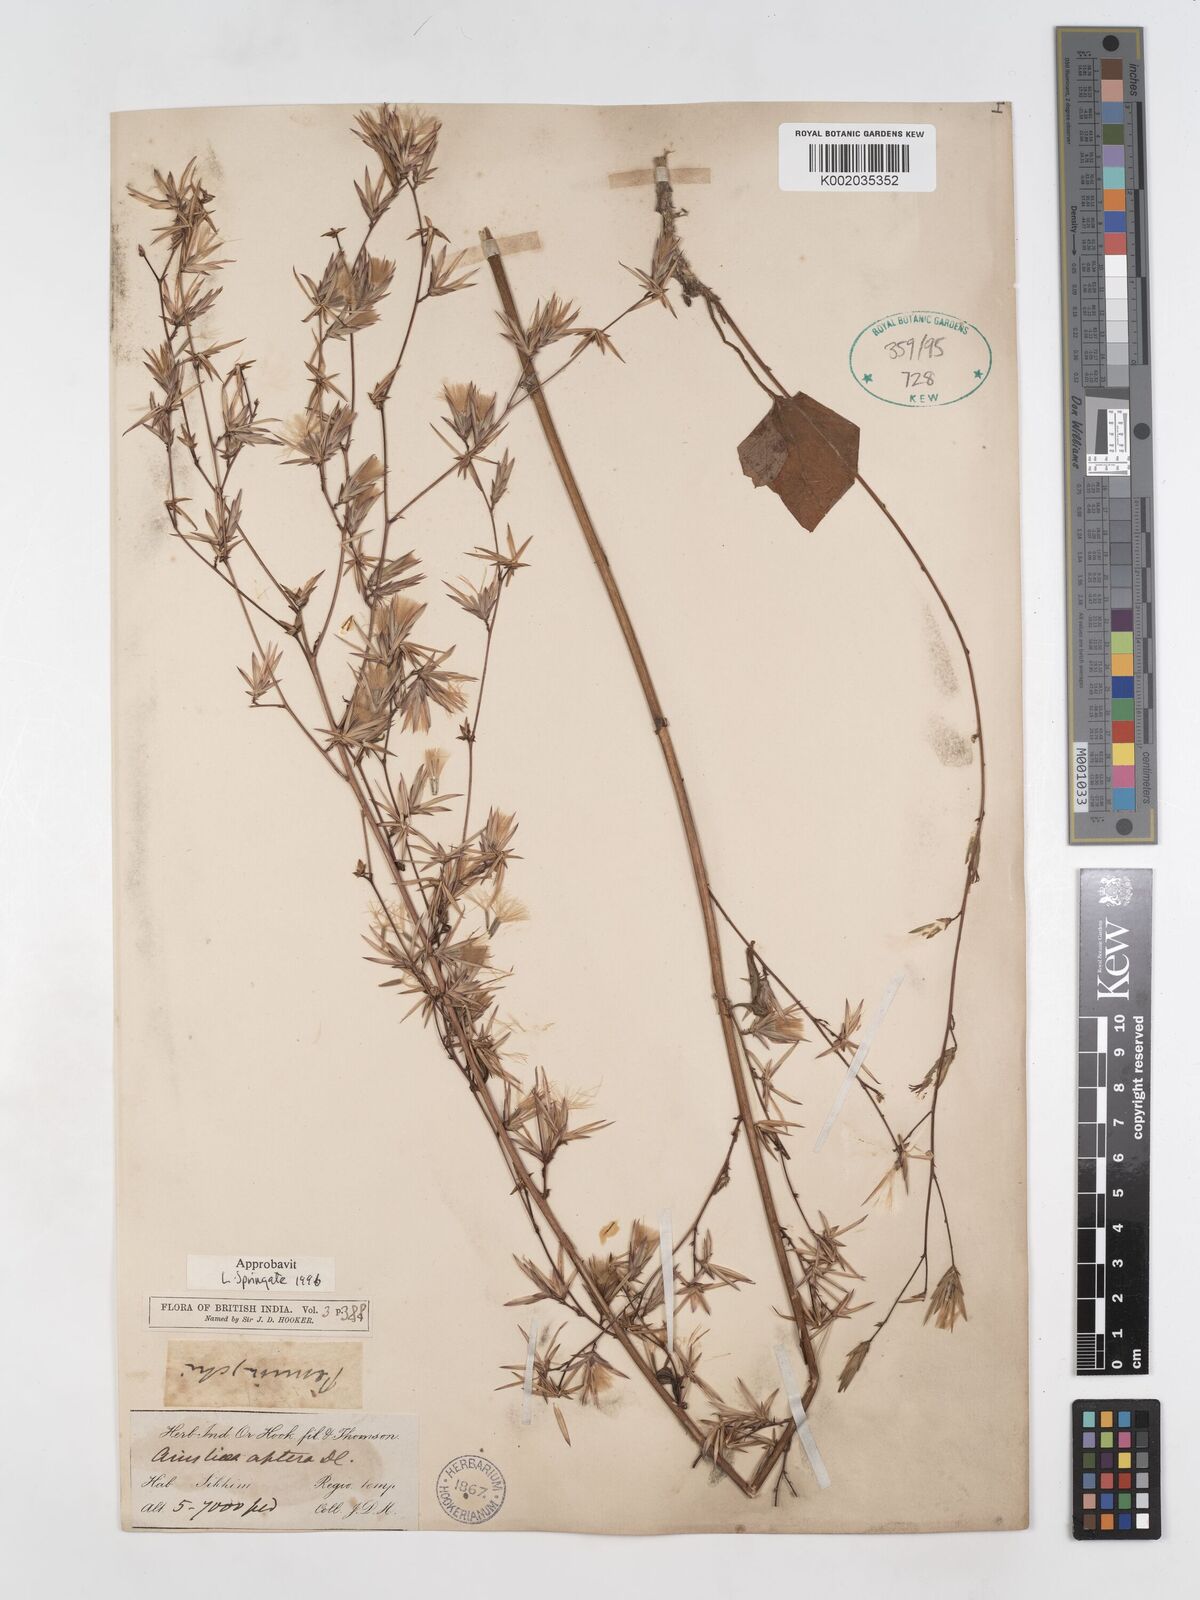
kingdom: Plantae
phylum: Tracheophyta
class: Magnoliopsida
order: Asterales
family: Asteraceae
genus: Ainsliaea
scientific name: Ainsliaea aptera
